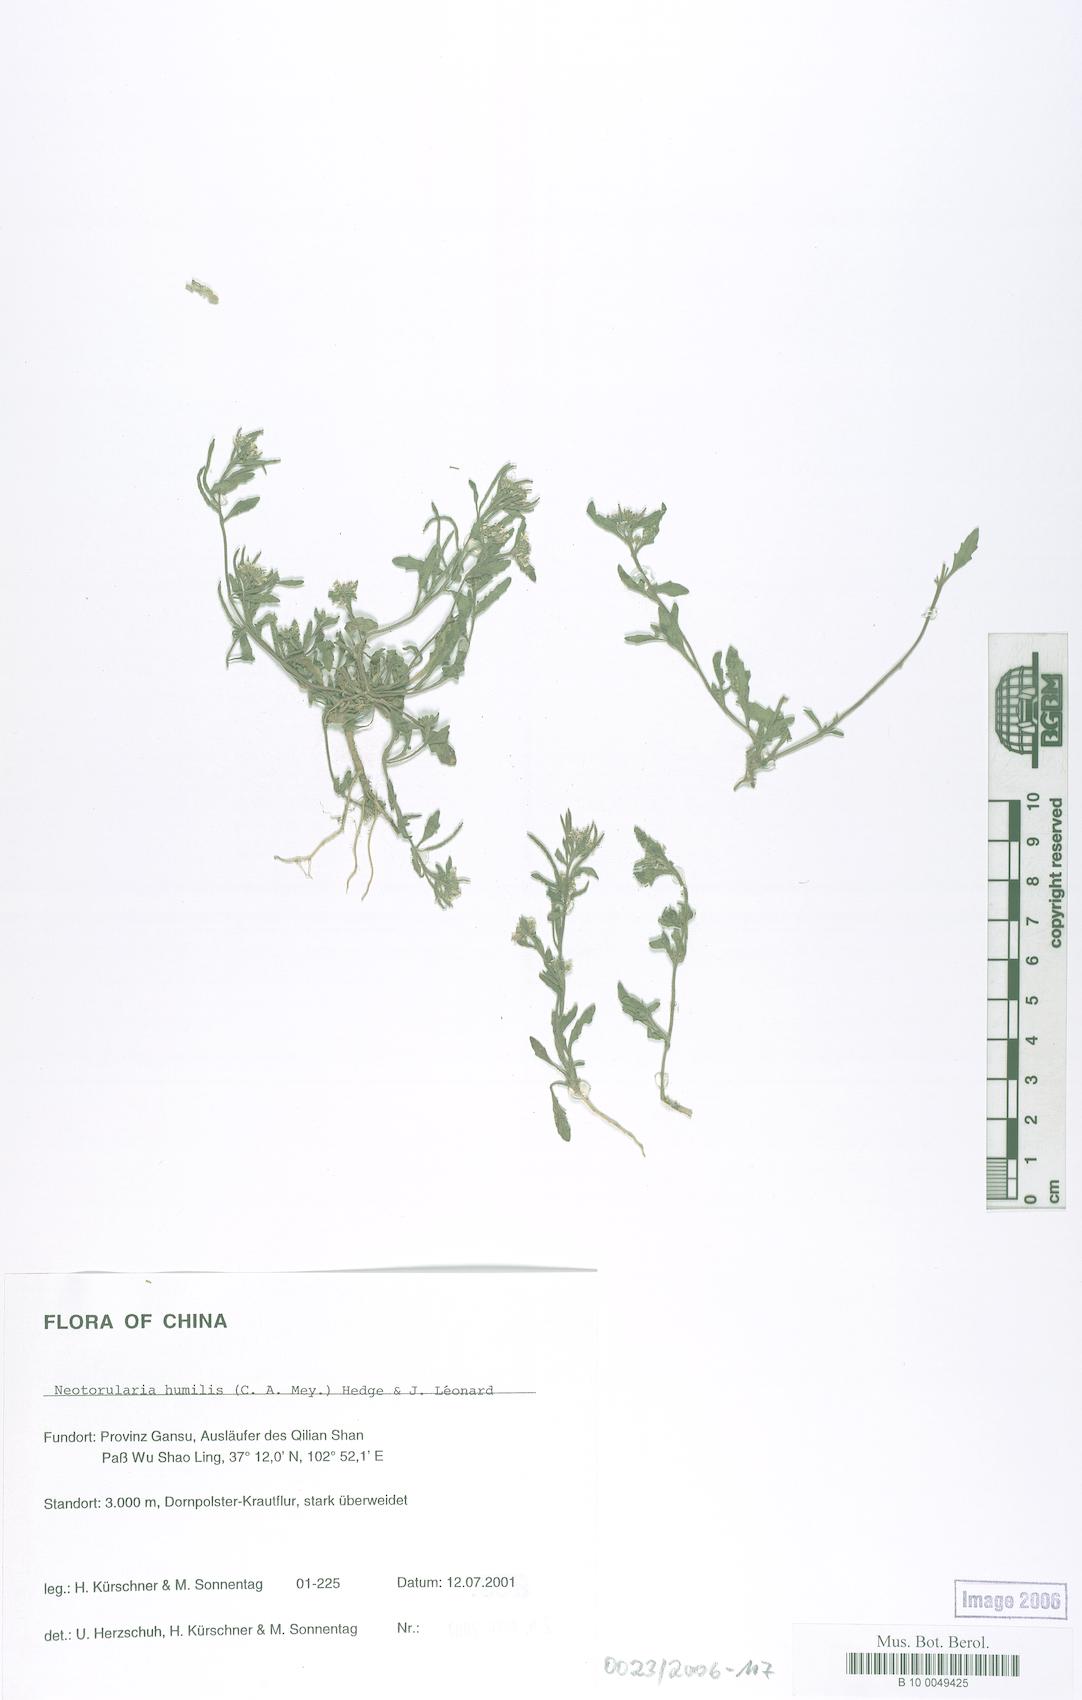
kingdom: Plantae
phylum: Tracheophyta
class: Magnoliopsida
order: Brassicales
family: Brassicaceae
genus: Braya
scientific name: Braya humilis
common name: Alpine northern rockcress
